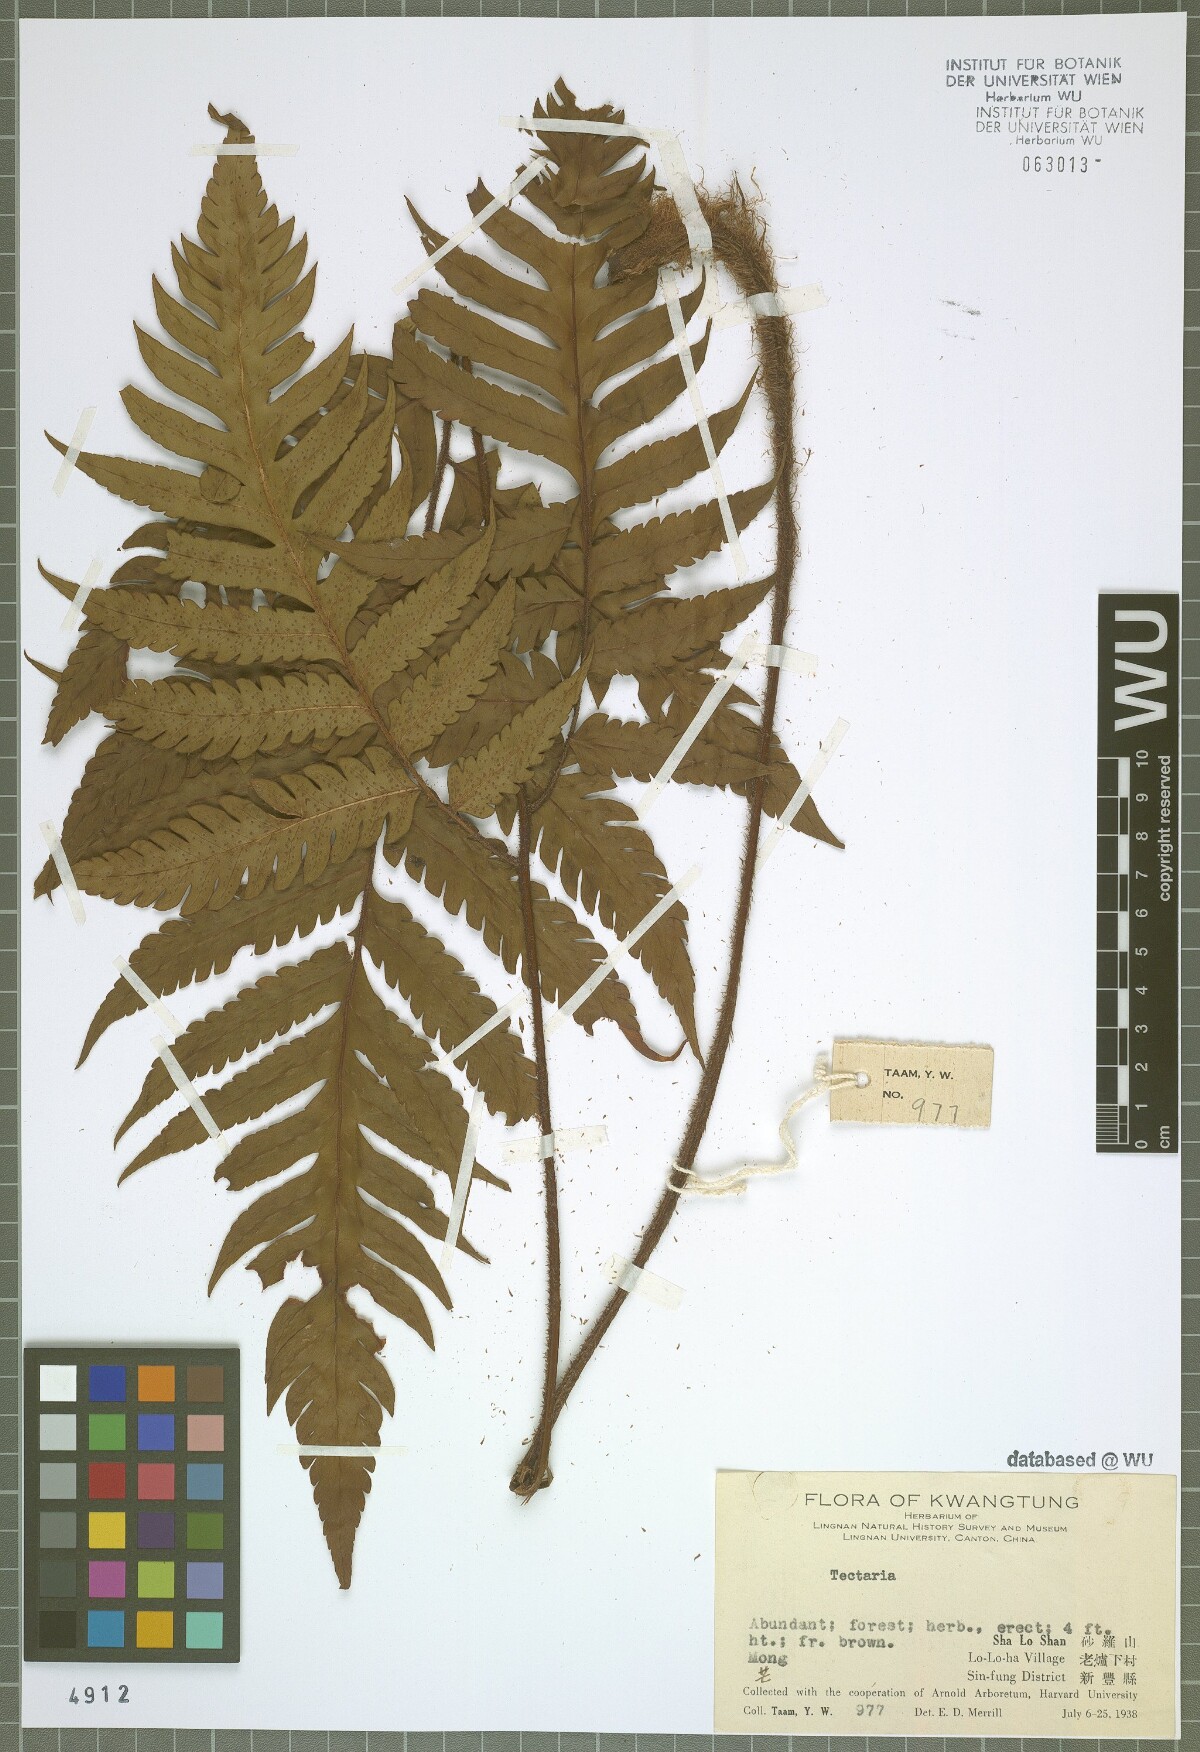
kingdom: Plantae
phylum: Tracheophyta
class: Polypodiopsida
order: Polypodiales
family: Tectariaceae
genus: Tectaria
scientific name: Tectaria
